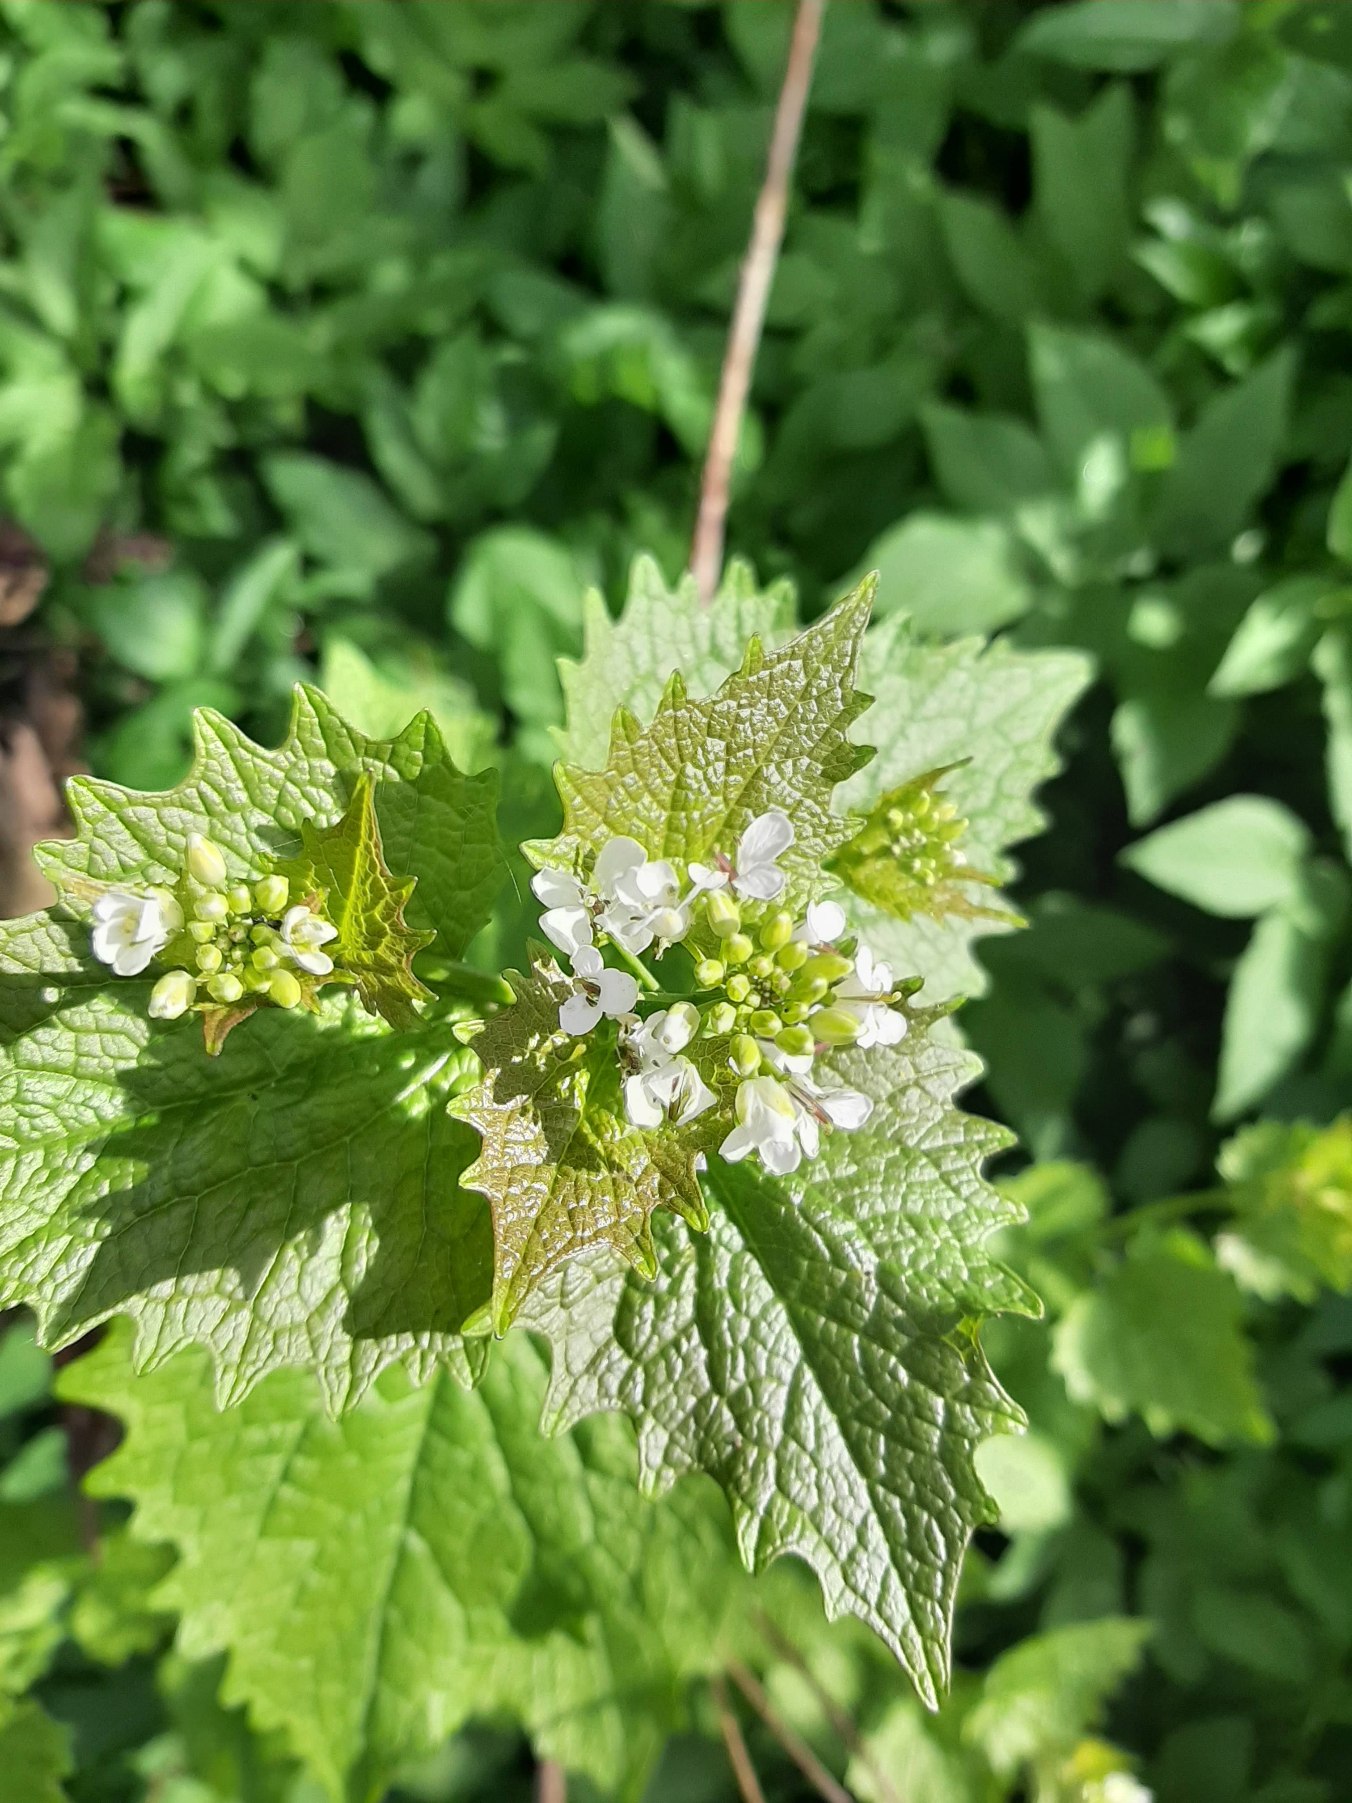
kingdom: Plantae
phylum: Tracheophyta
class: Magnoliopsida
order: Brassicales
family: Brassicaceae
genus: Alliaria
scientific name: Alliaria petiolata
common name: Løgkarse
